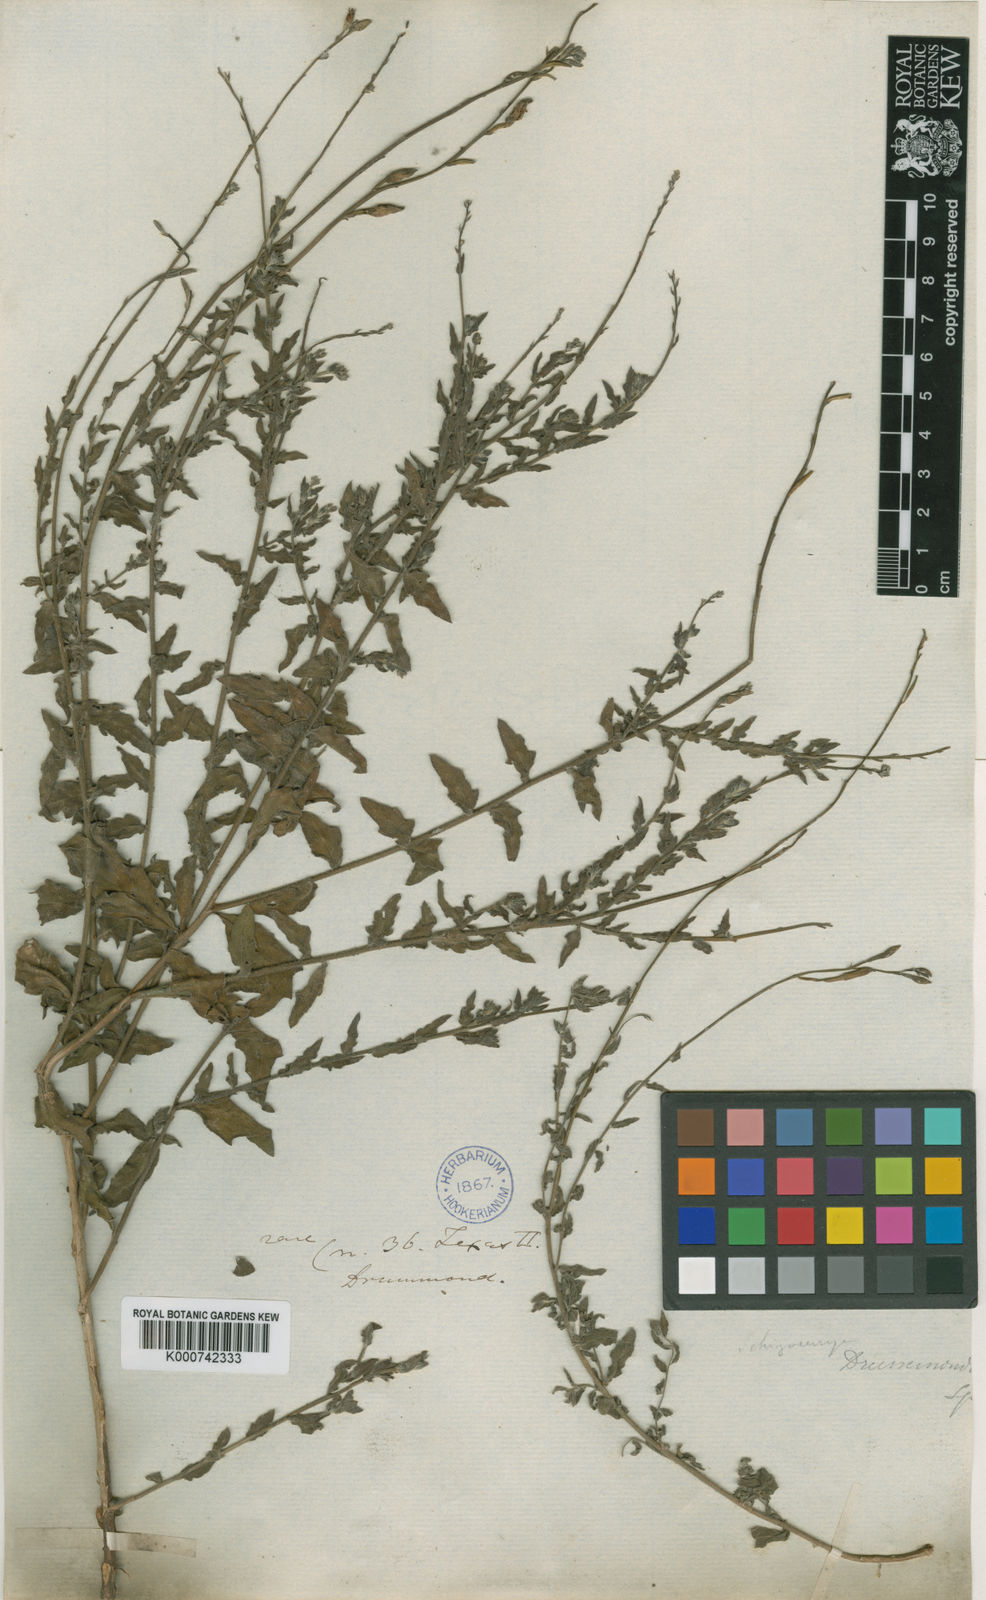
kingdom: Plantae
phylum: Tracheophyta
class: Magnoliopsida
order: Myrtales
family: Onagraceae
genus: Oenothera
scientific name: Oenothera hispida
